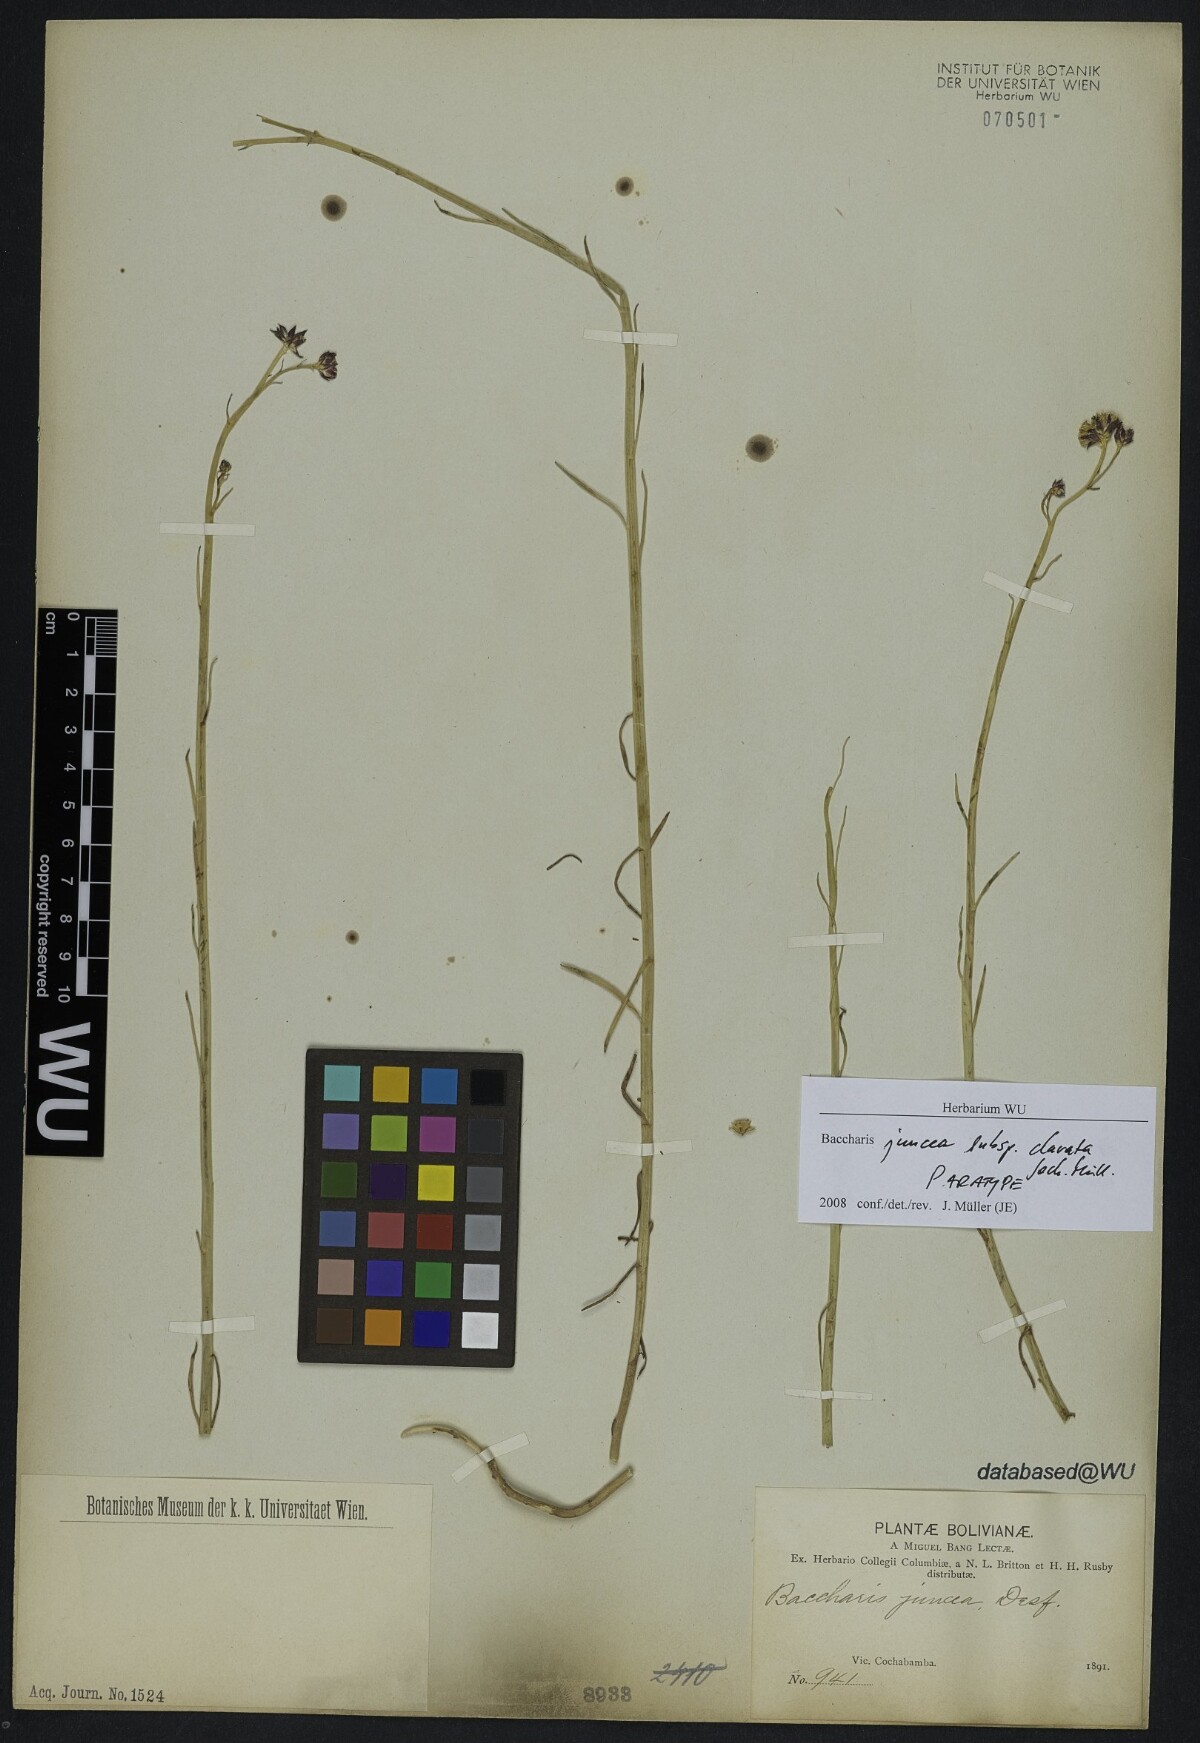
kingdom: Plantae
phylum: Tracheophyta
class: Magnoliopsida
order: Asterales
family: Asteraceae
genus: Baccharis
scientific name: Baccharis clavata
